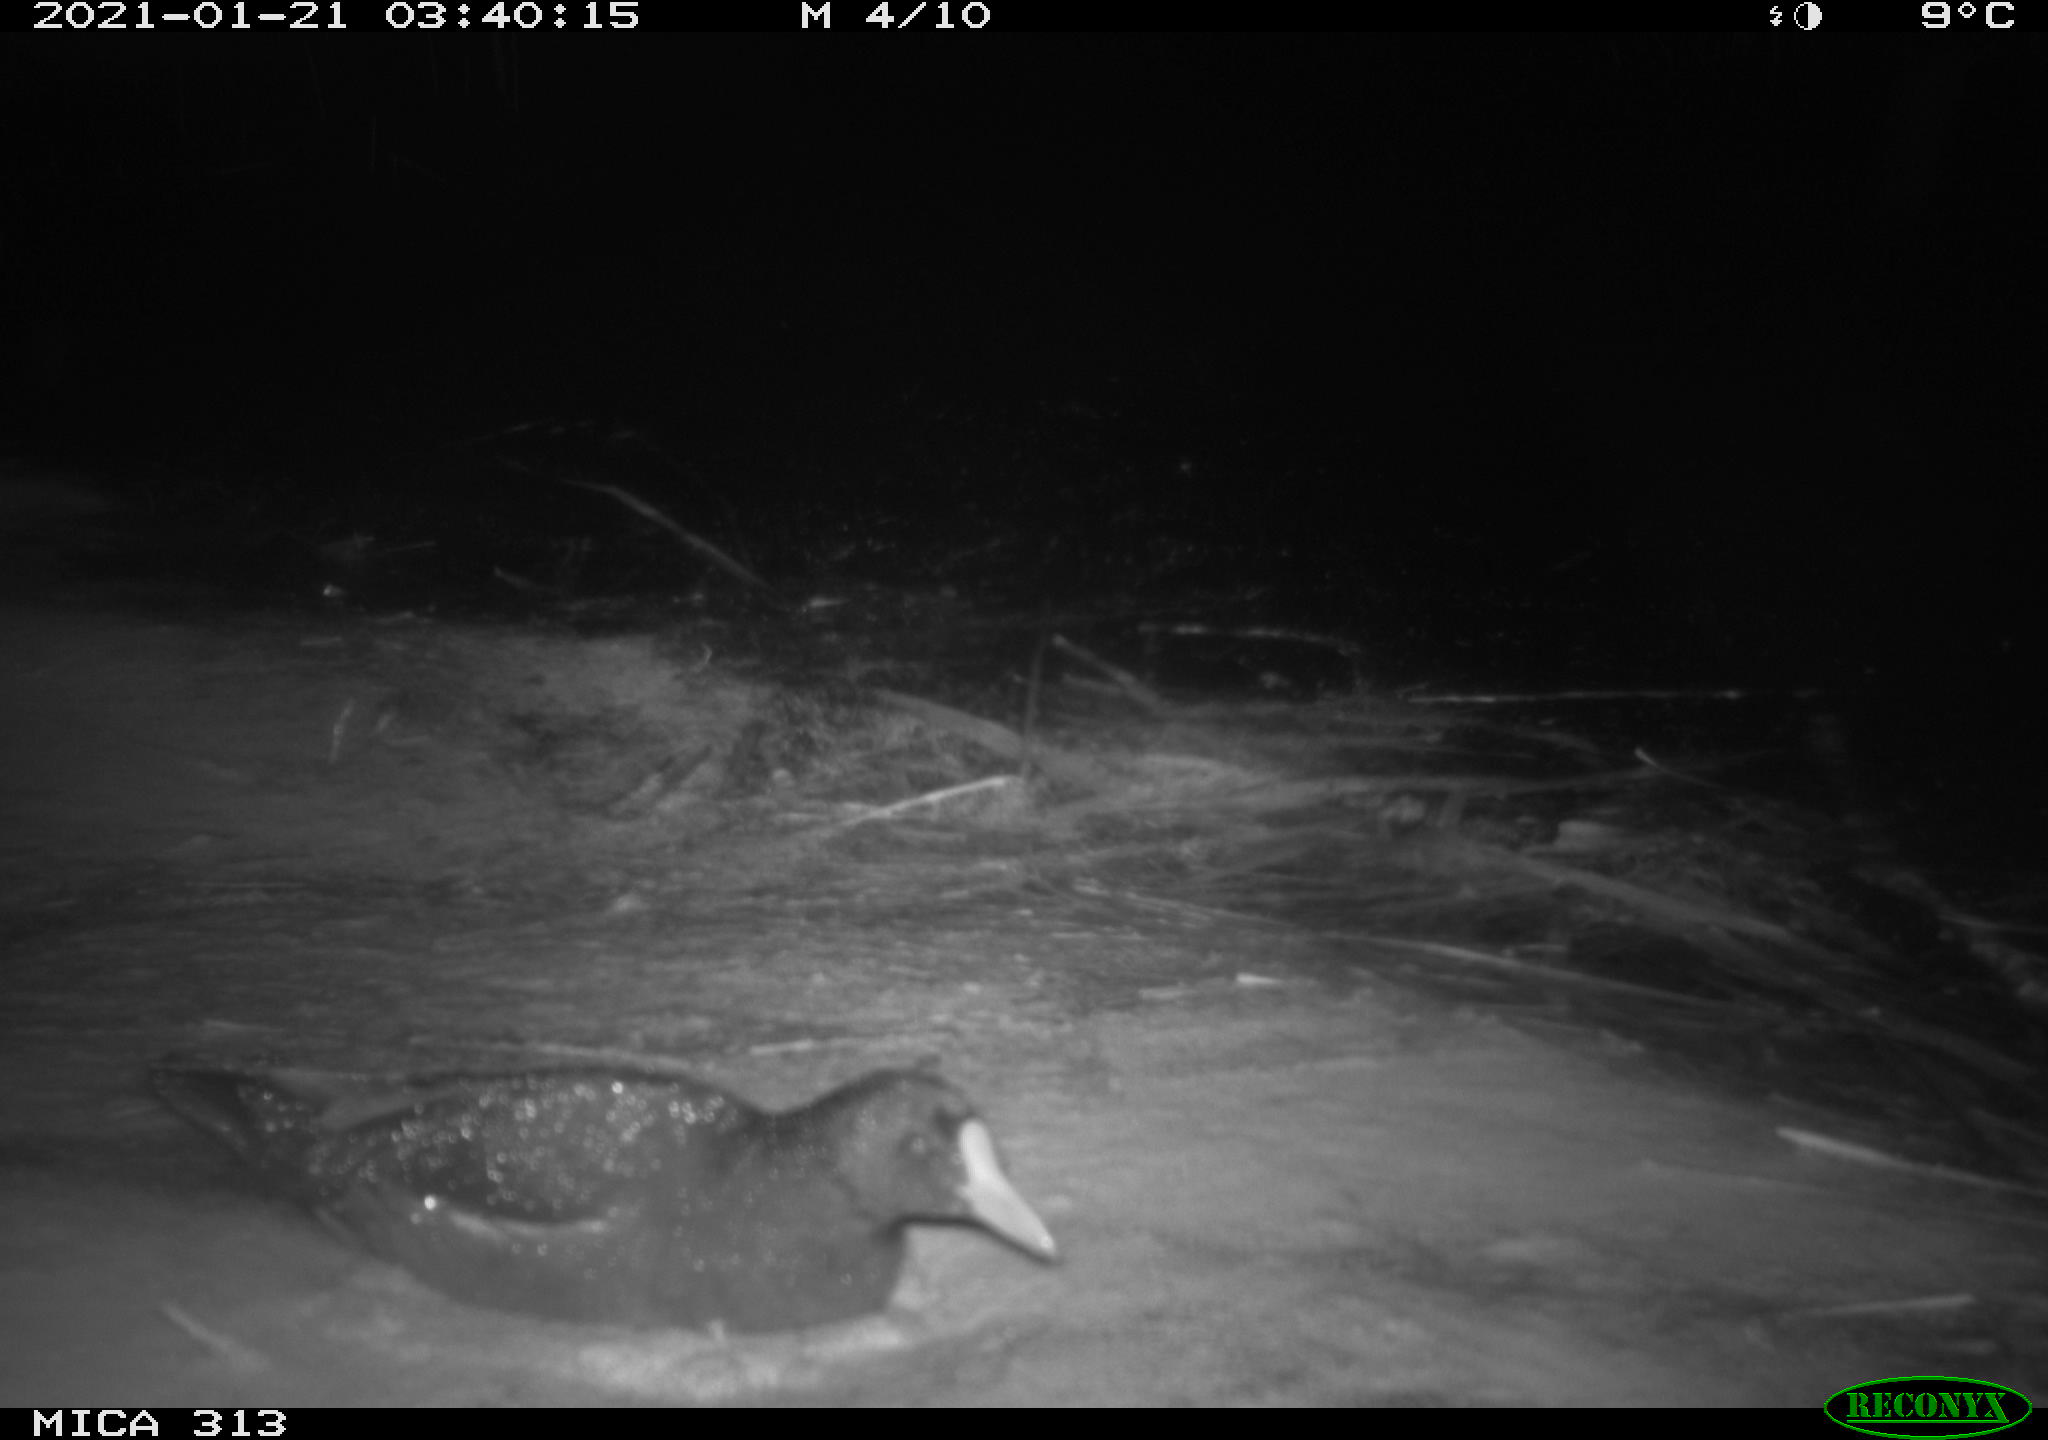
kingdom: Animalia
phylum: Chordata
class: Aves
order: Gruiformes
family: Rallidae
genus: Gallinula
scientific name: Gallinula chloropus
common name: Common moorhen
